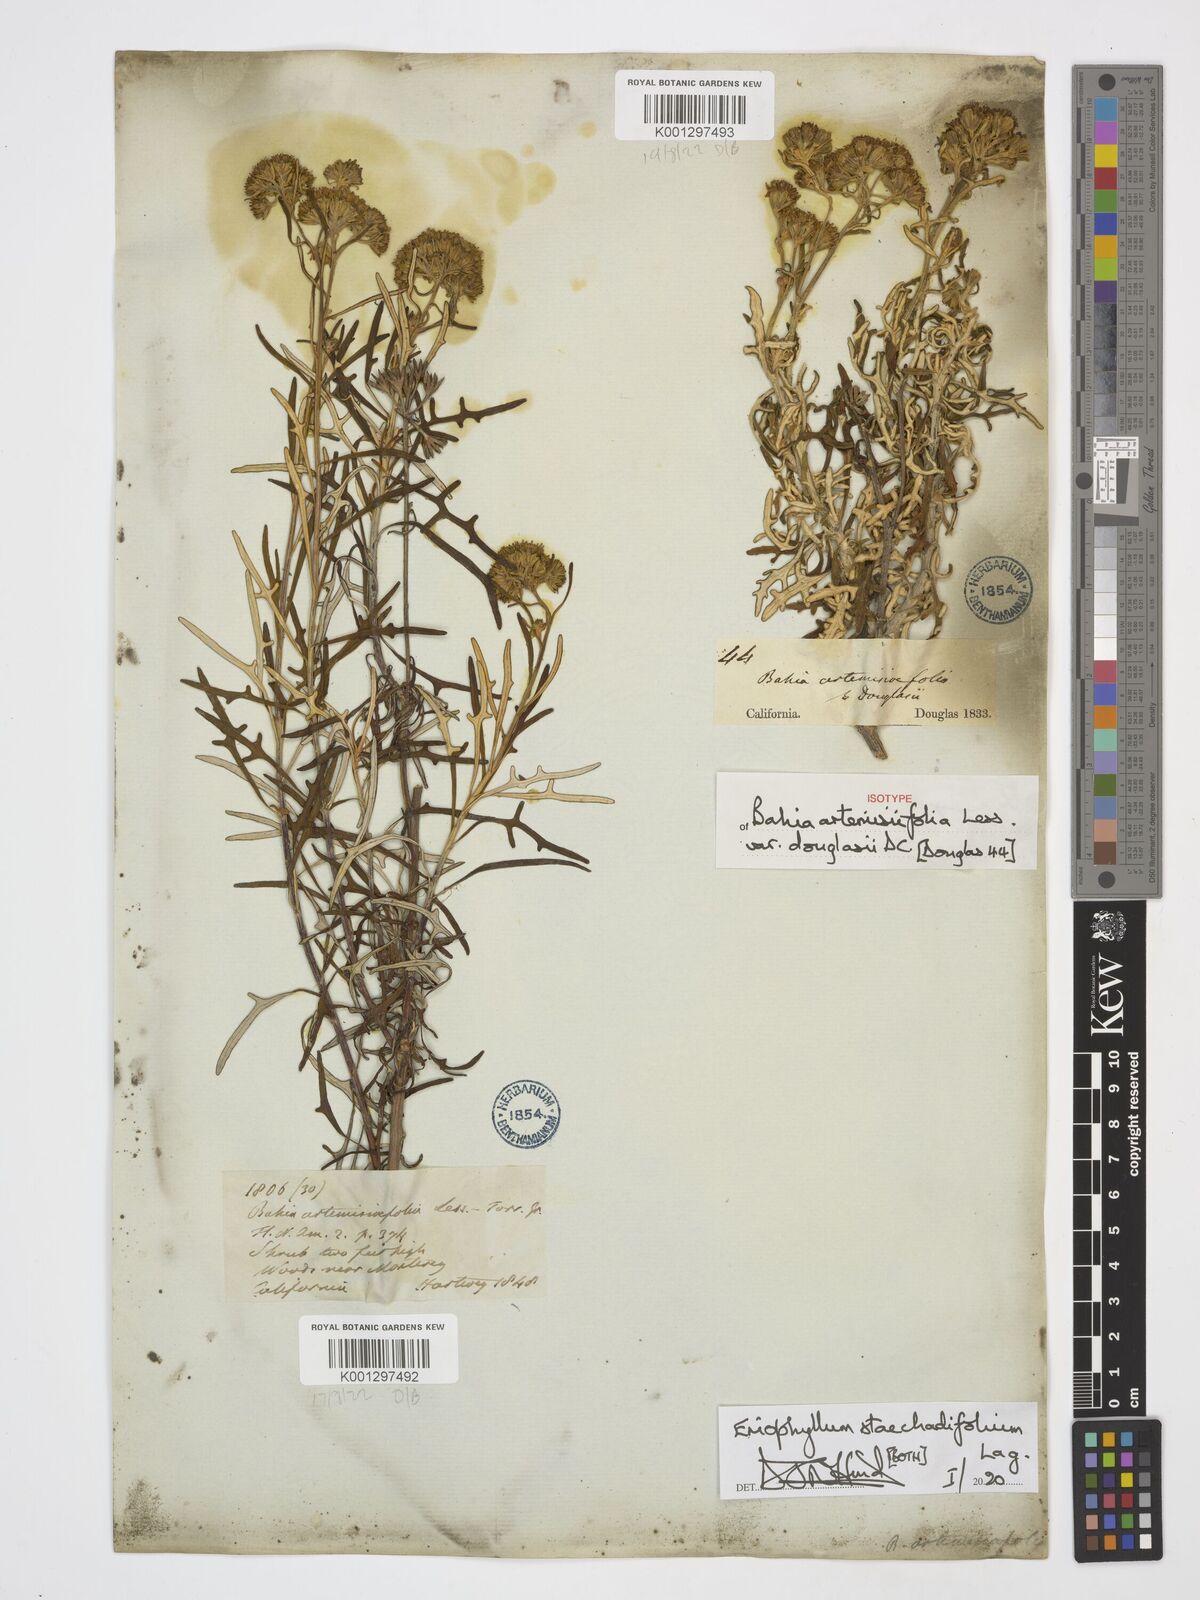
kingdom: Plantae
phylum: Tracheophyta
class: Magnoliopsida
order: Asterales
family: Asteraceae
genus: Eriophyllum
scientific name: Eriophyllum staechadifolium
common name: Lizardtail
